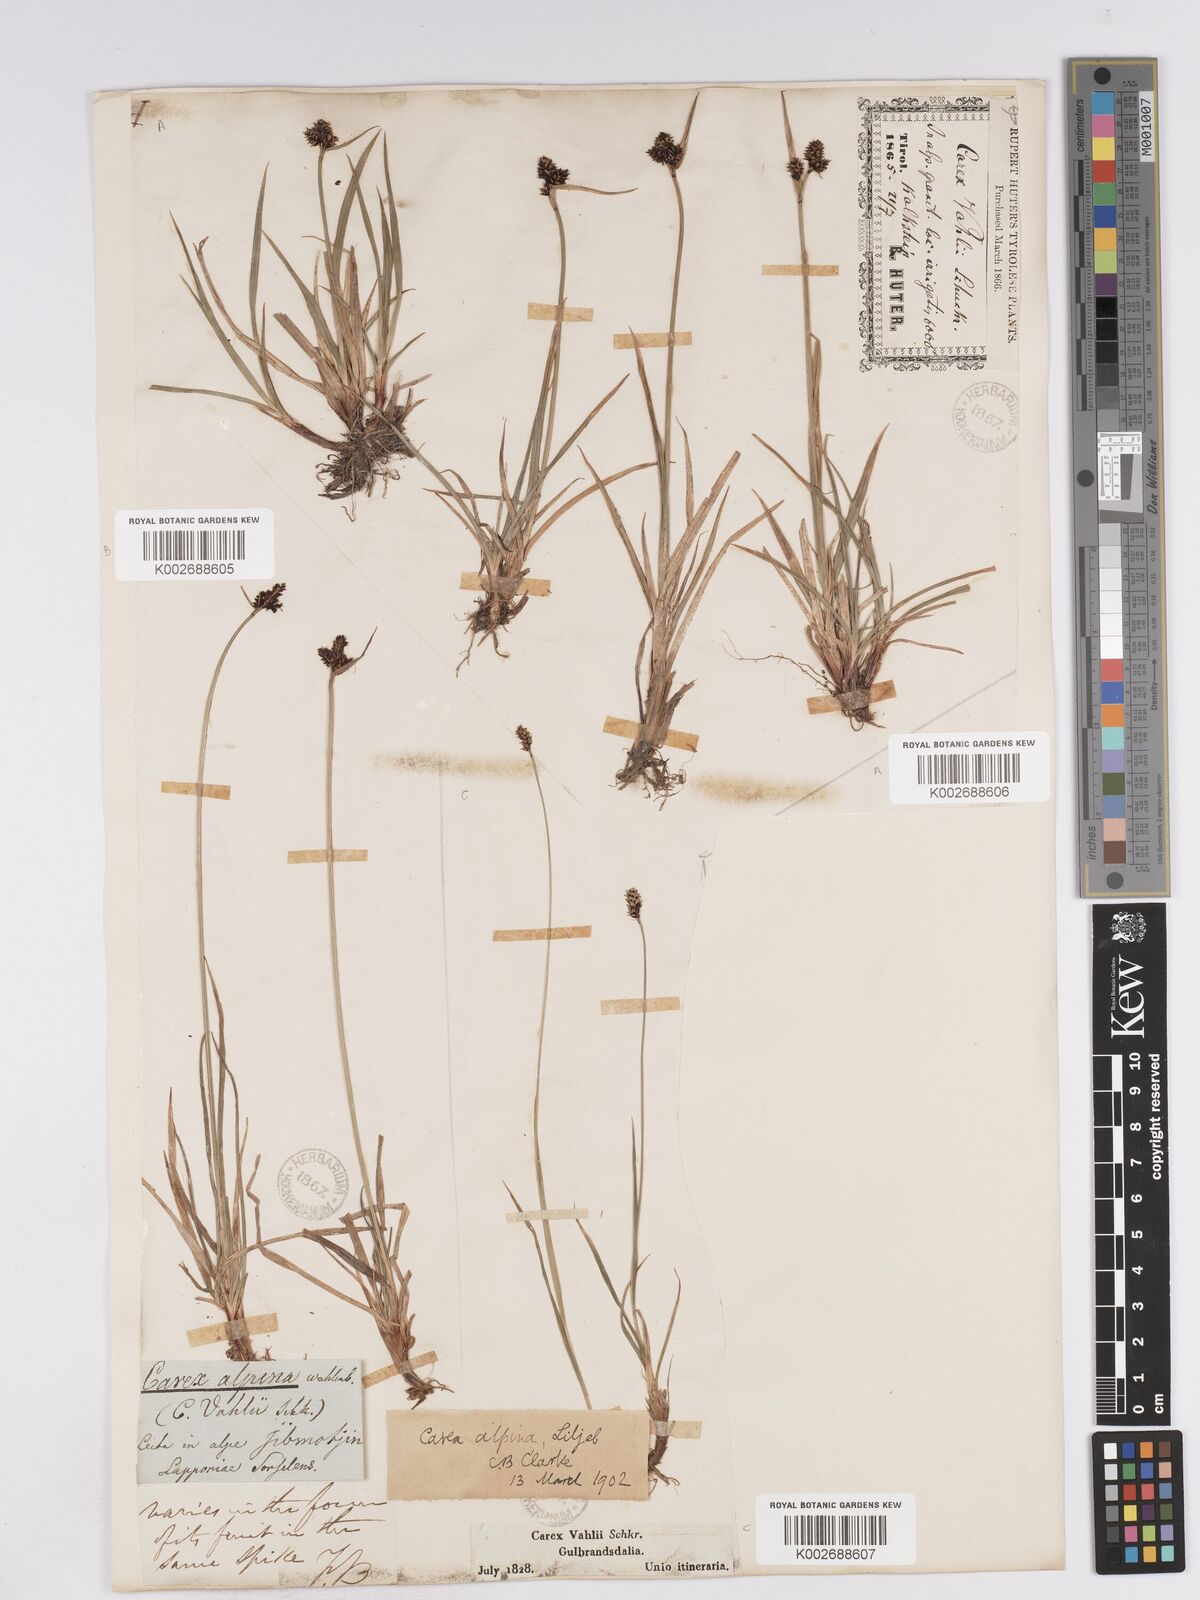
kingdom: Plantae
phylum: Tracheophyta
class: Liliopsida
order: Poales
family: Cyperaceae
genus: Carex
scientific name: Carex norvegica
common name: Close-headed alpine-sedge
